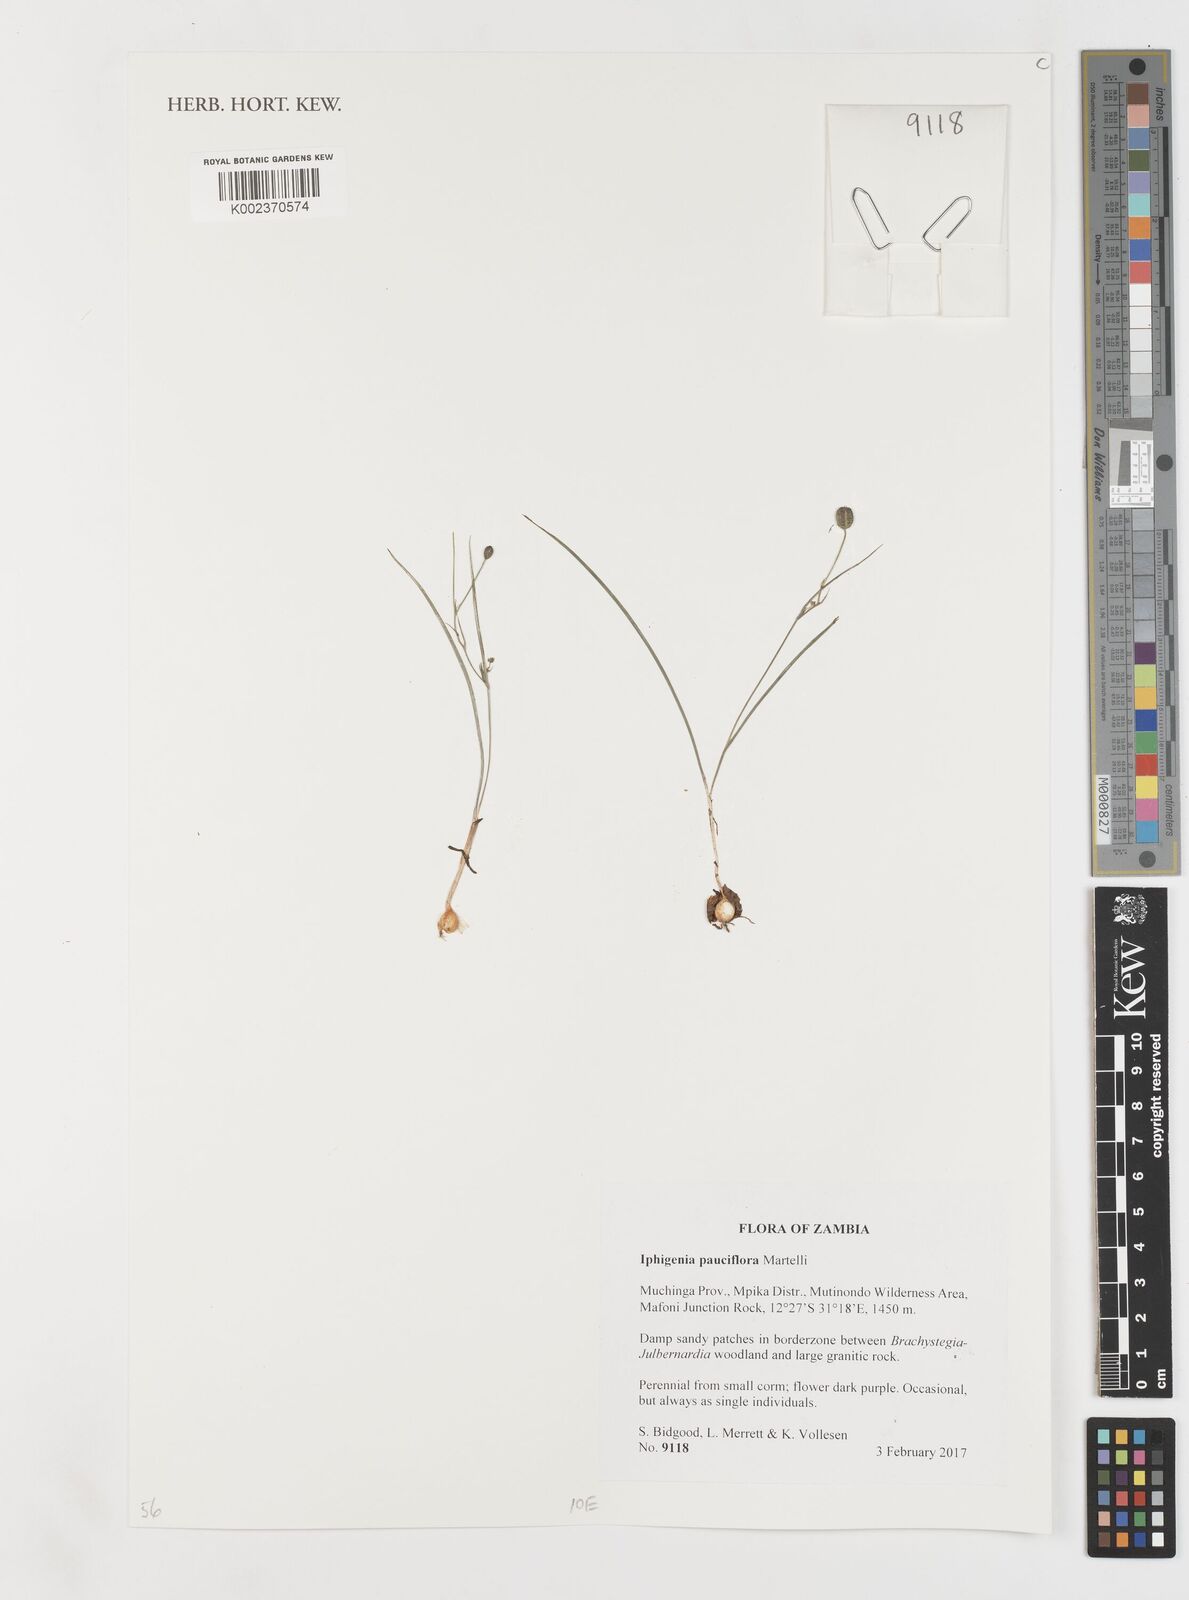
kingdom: Plantae
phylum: Tracheophyta
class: Liliopsida
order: Liliales
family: Colchicaceae
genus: Iphigenia
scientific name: Iphigenia pauciflora
